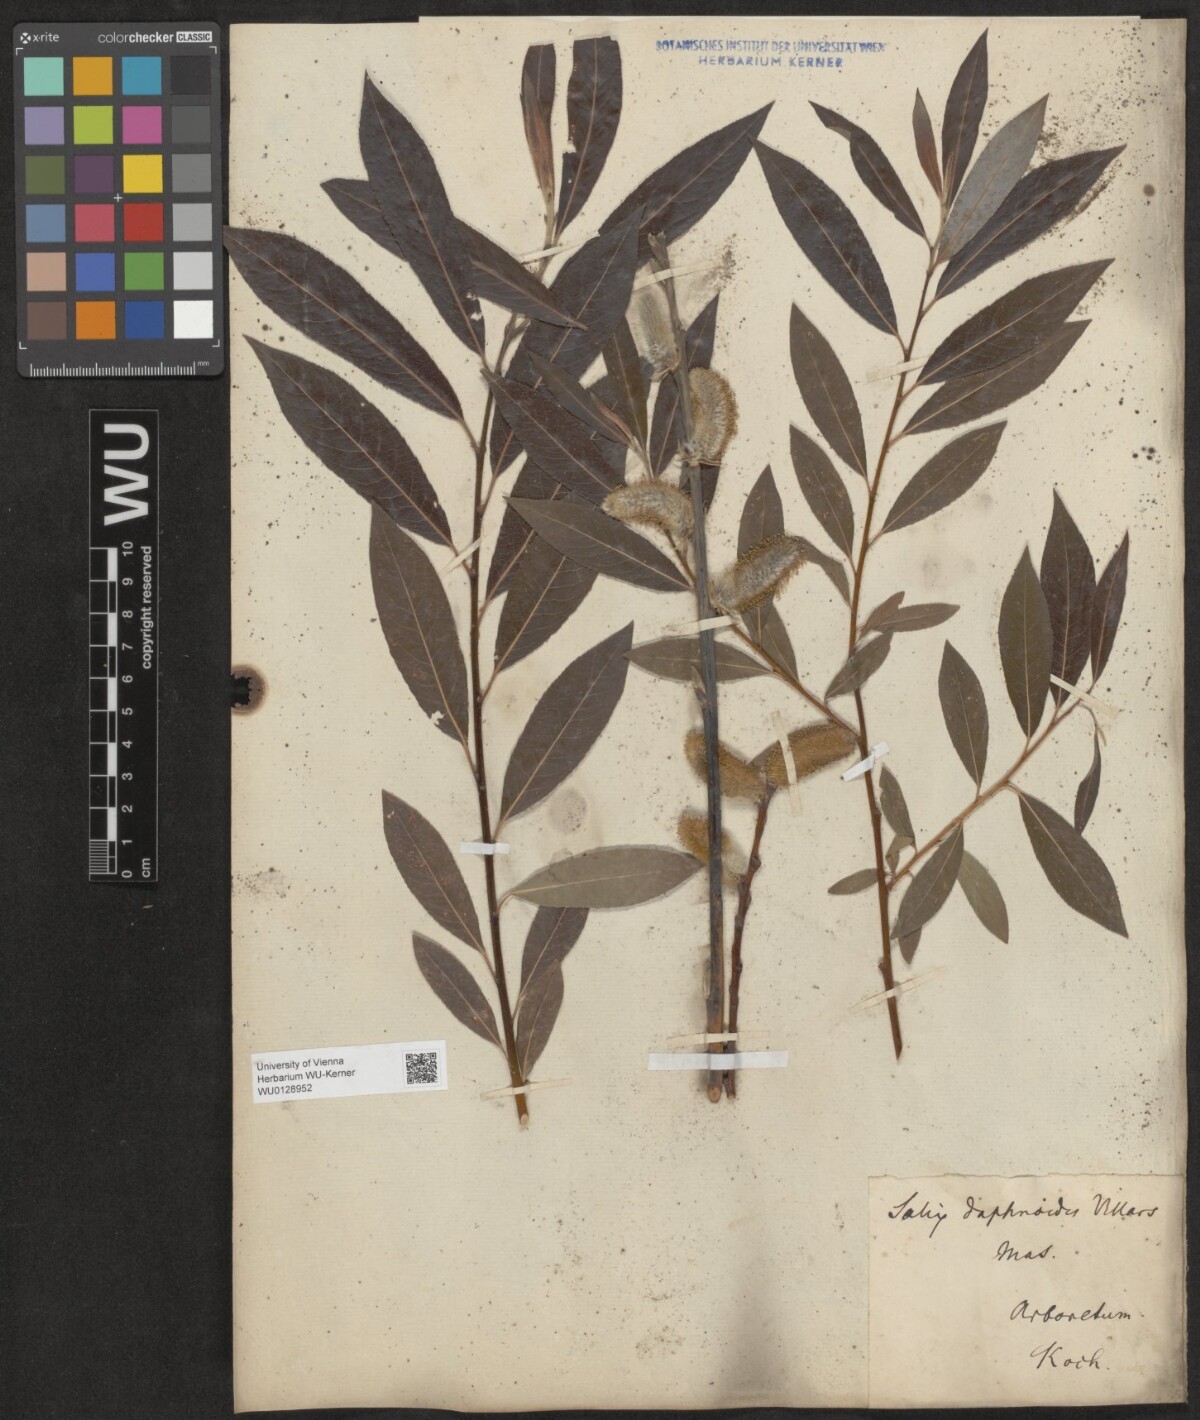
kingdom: Plantae
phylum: Tracheophyta
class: Magnoliopsida
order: Malpighiales
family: Salicaceae
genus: Salix
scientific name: Salix daphnoides
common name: European violet-willow
